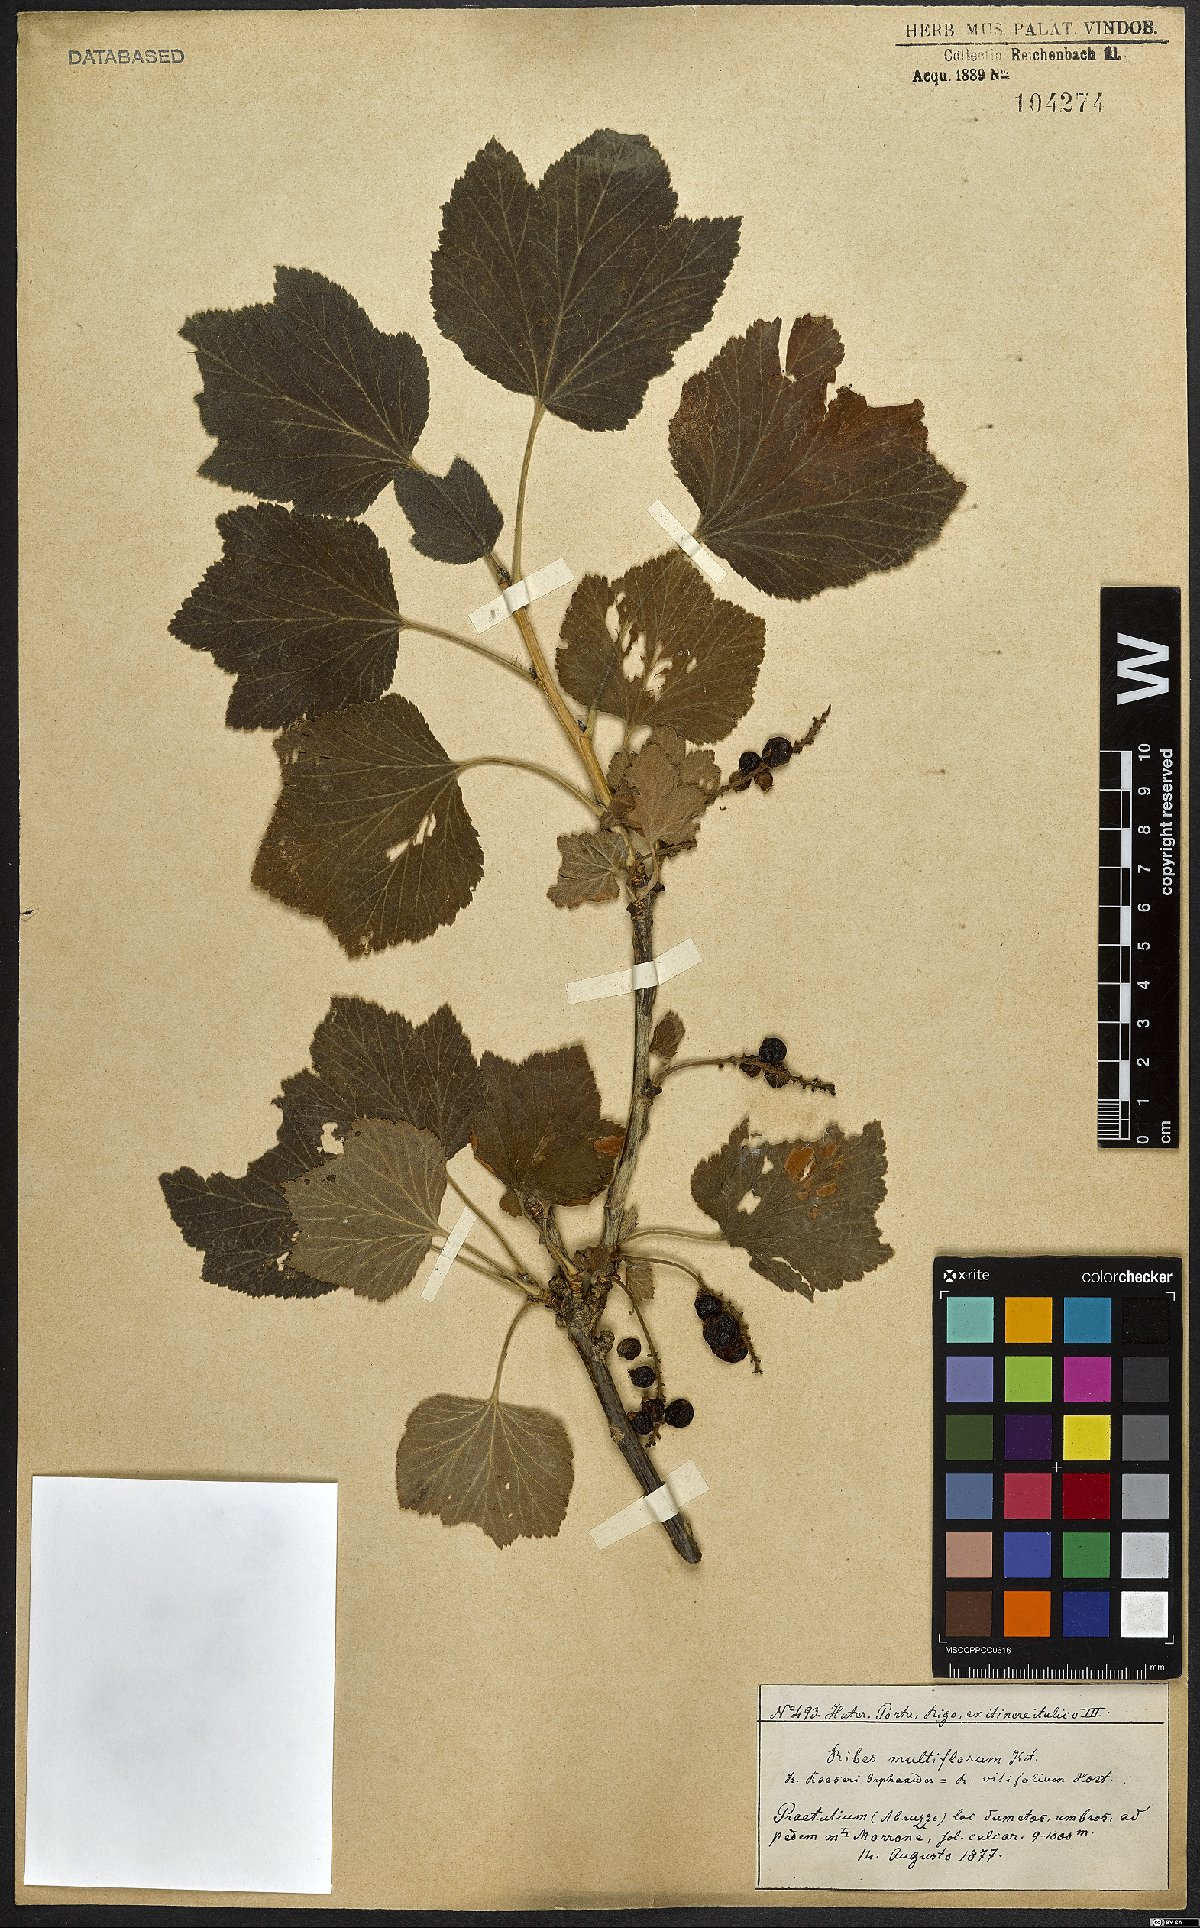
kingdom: Plantae
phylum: Tracheophyta
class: Magnoliopsida
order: Saxifragales
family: Grossulariaceae
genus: Ribes
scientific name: Ribes multiflorum
